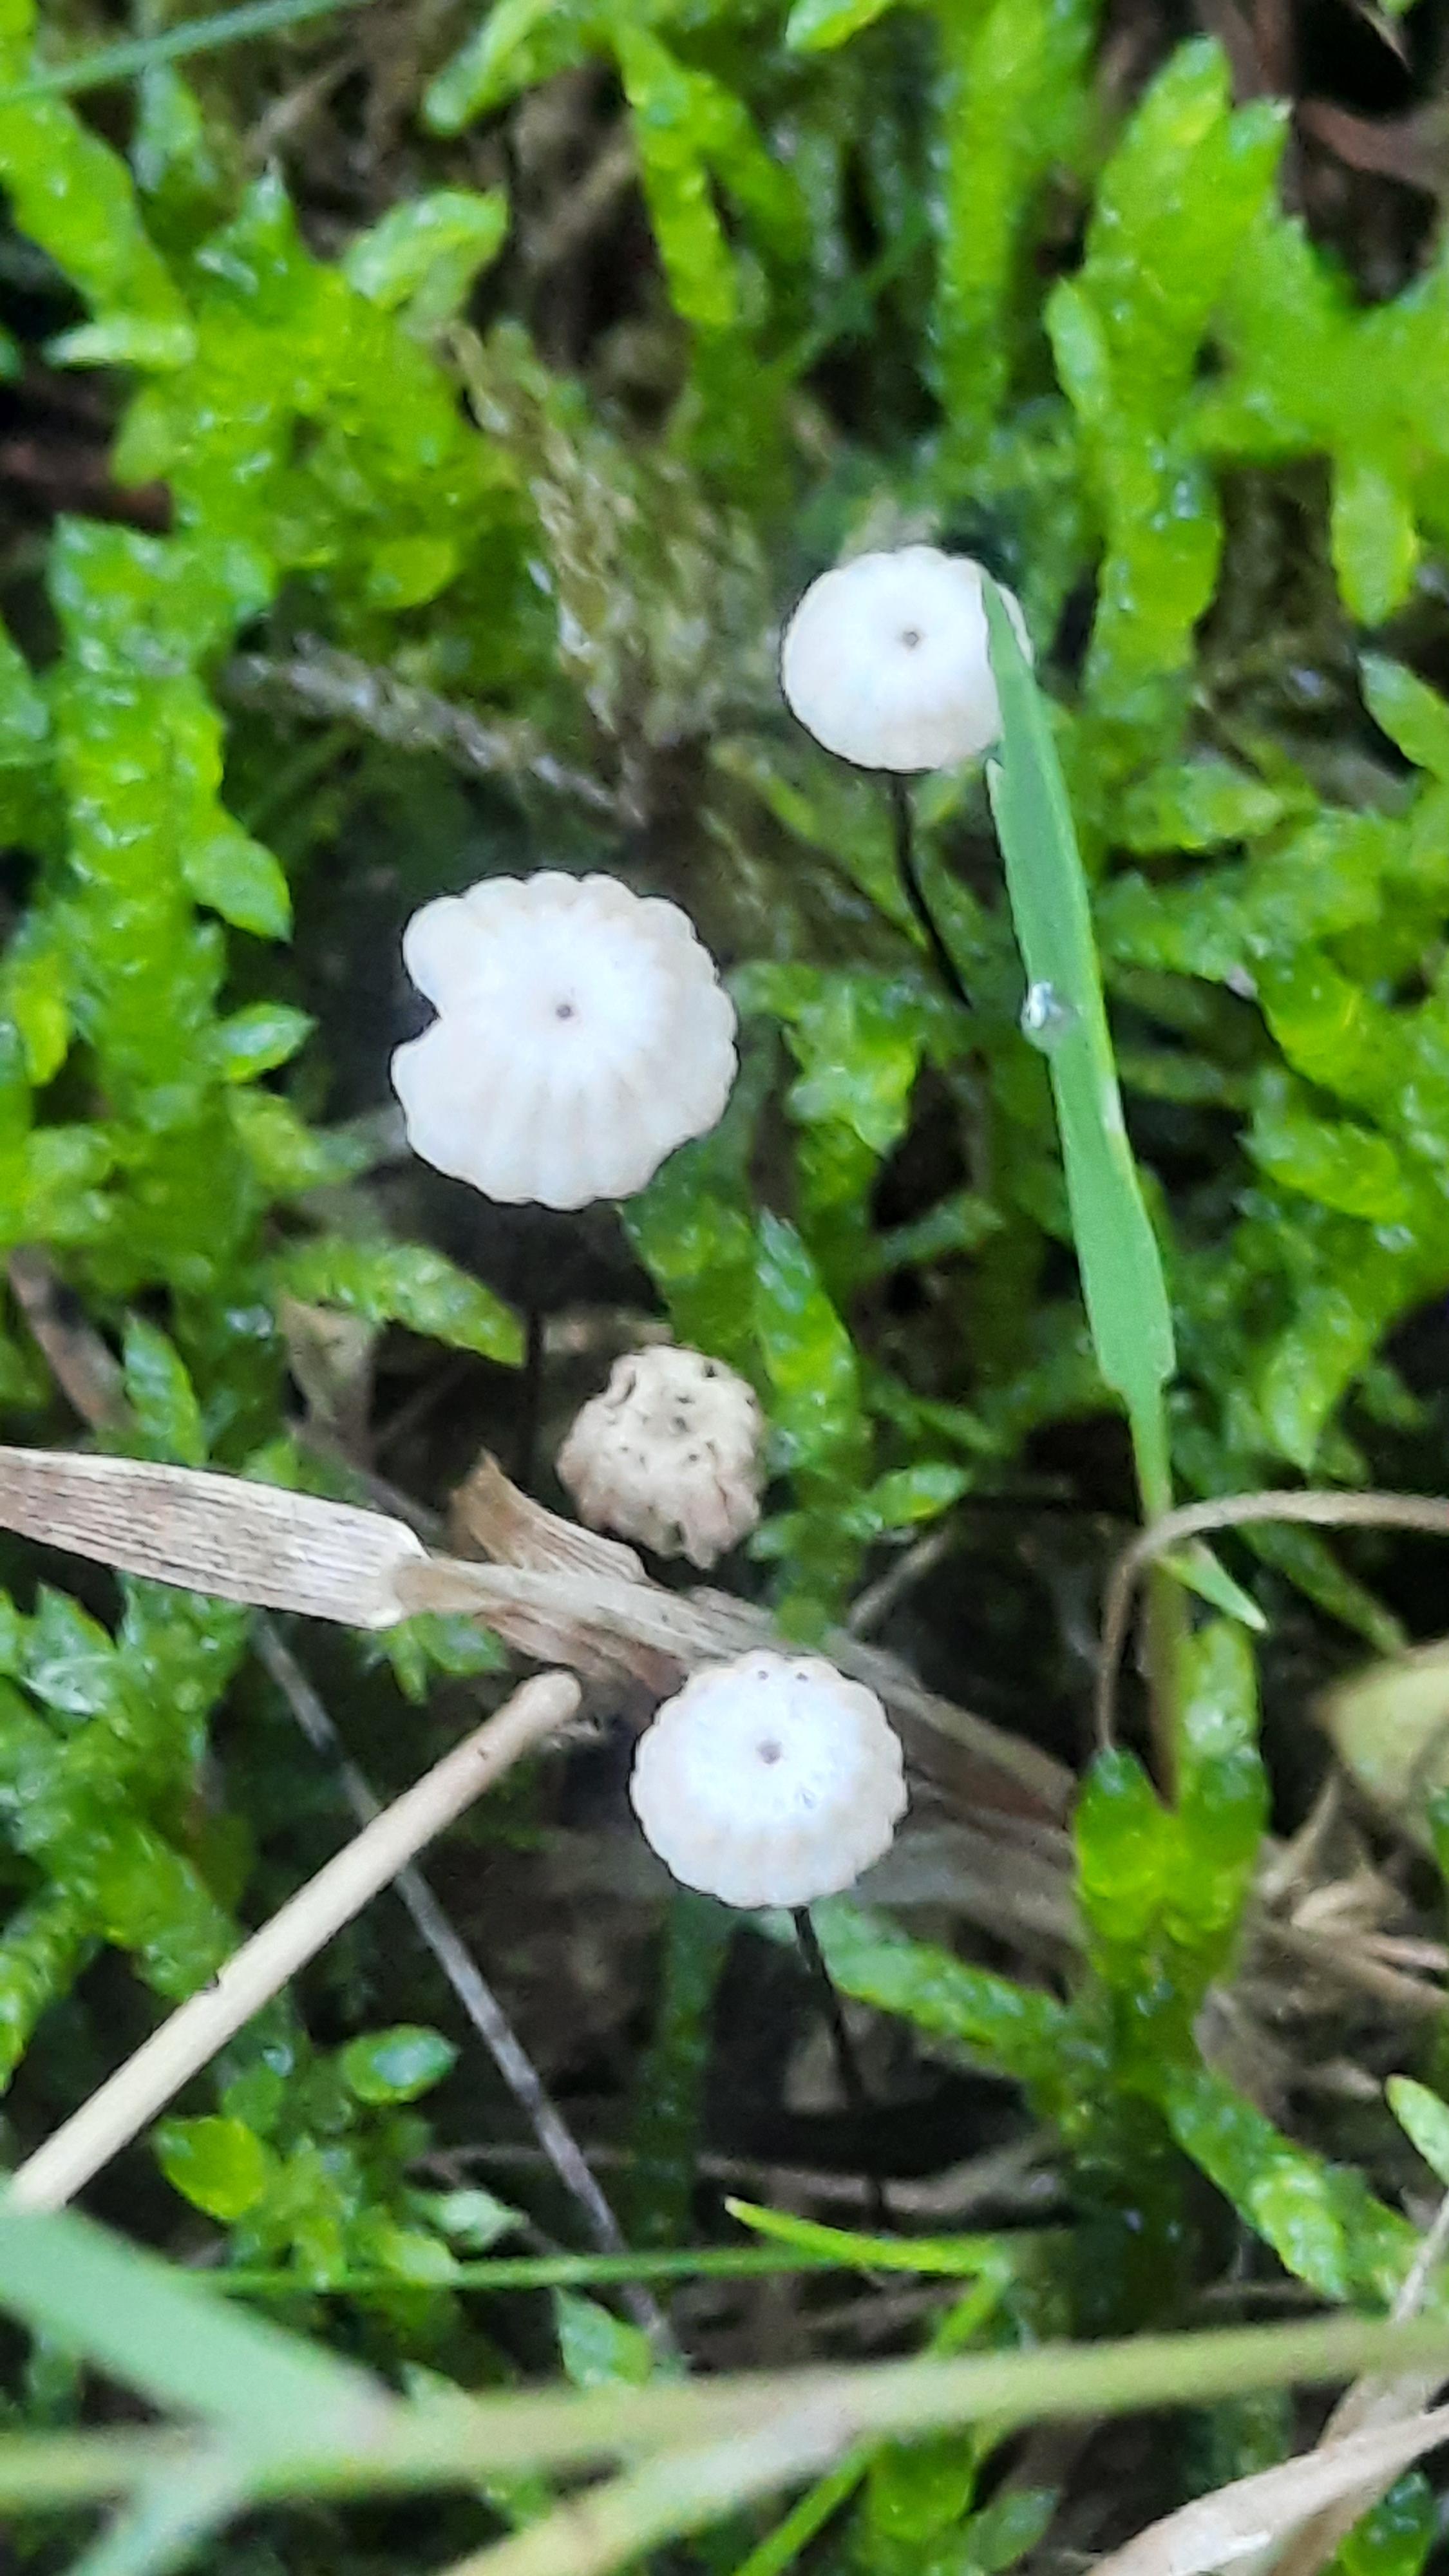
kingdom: Fungi
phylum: Basidiomycota
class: Agaricomycetes
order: Agaricales
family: Marasmiaceae
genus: Marasmius
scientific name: Marasmius rotula
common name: hjul-bruskhat
